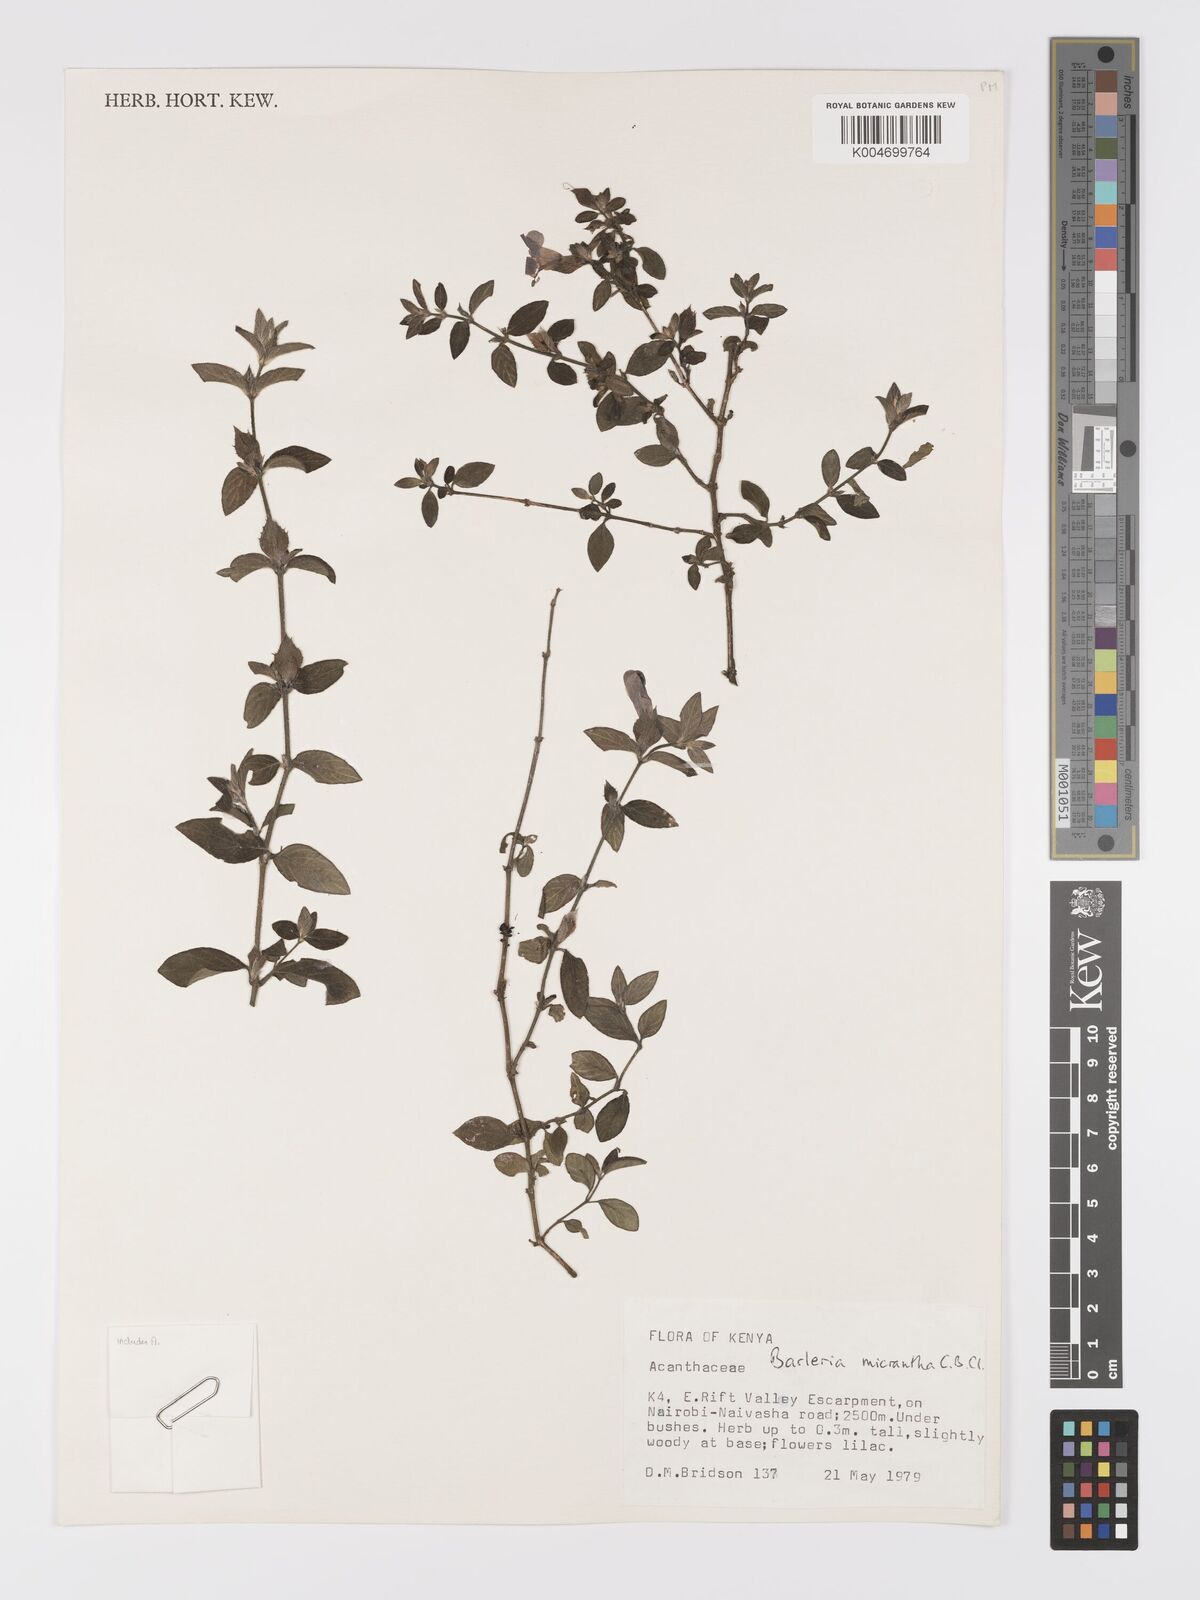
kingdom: Plantae
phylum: Tracheophyta
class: Magnoliopsida
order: Lamiales
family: Acanthaceae
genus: Barleria
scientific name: Barleria ventricosa
